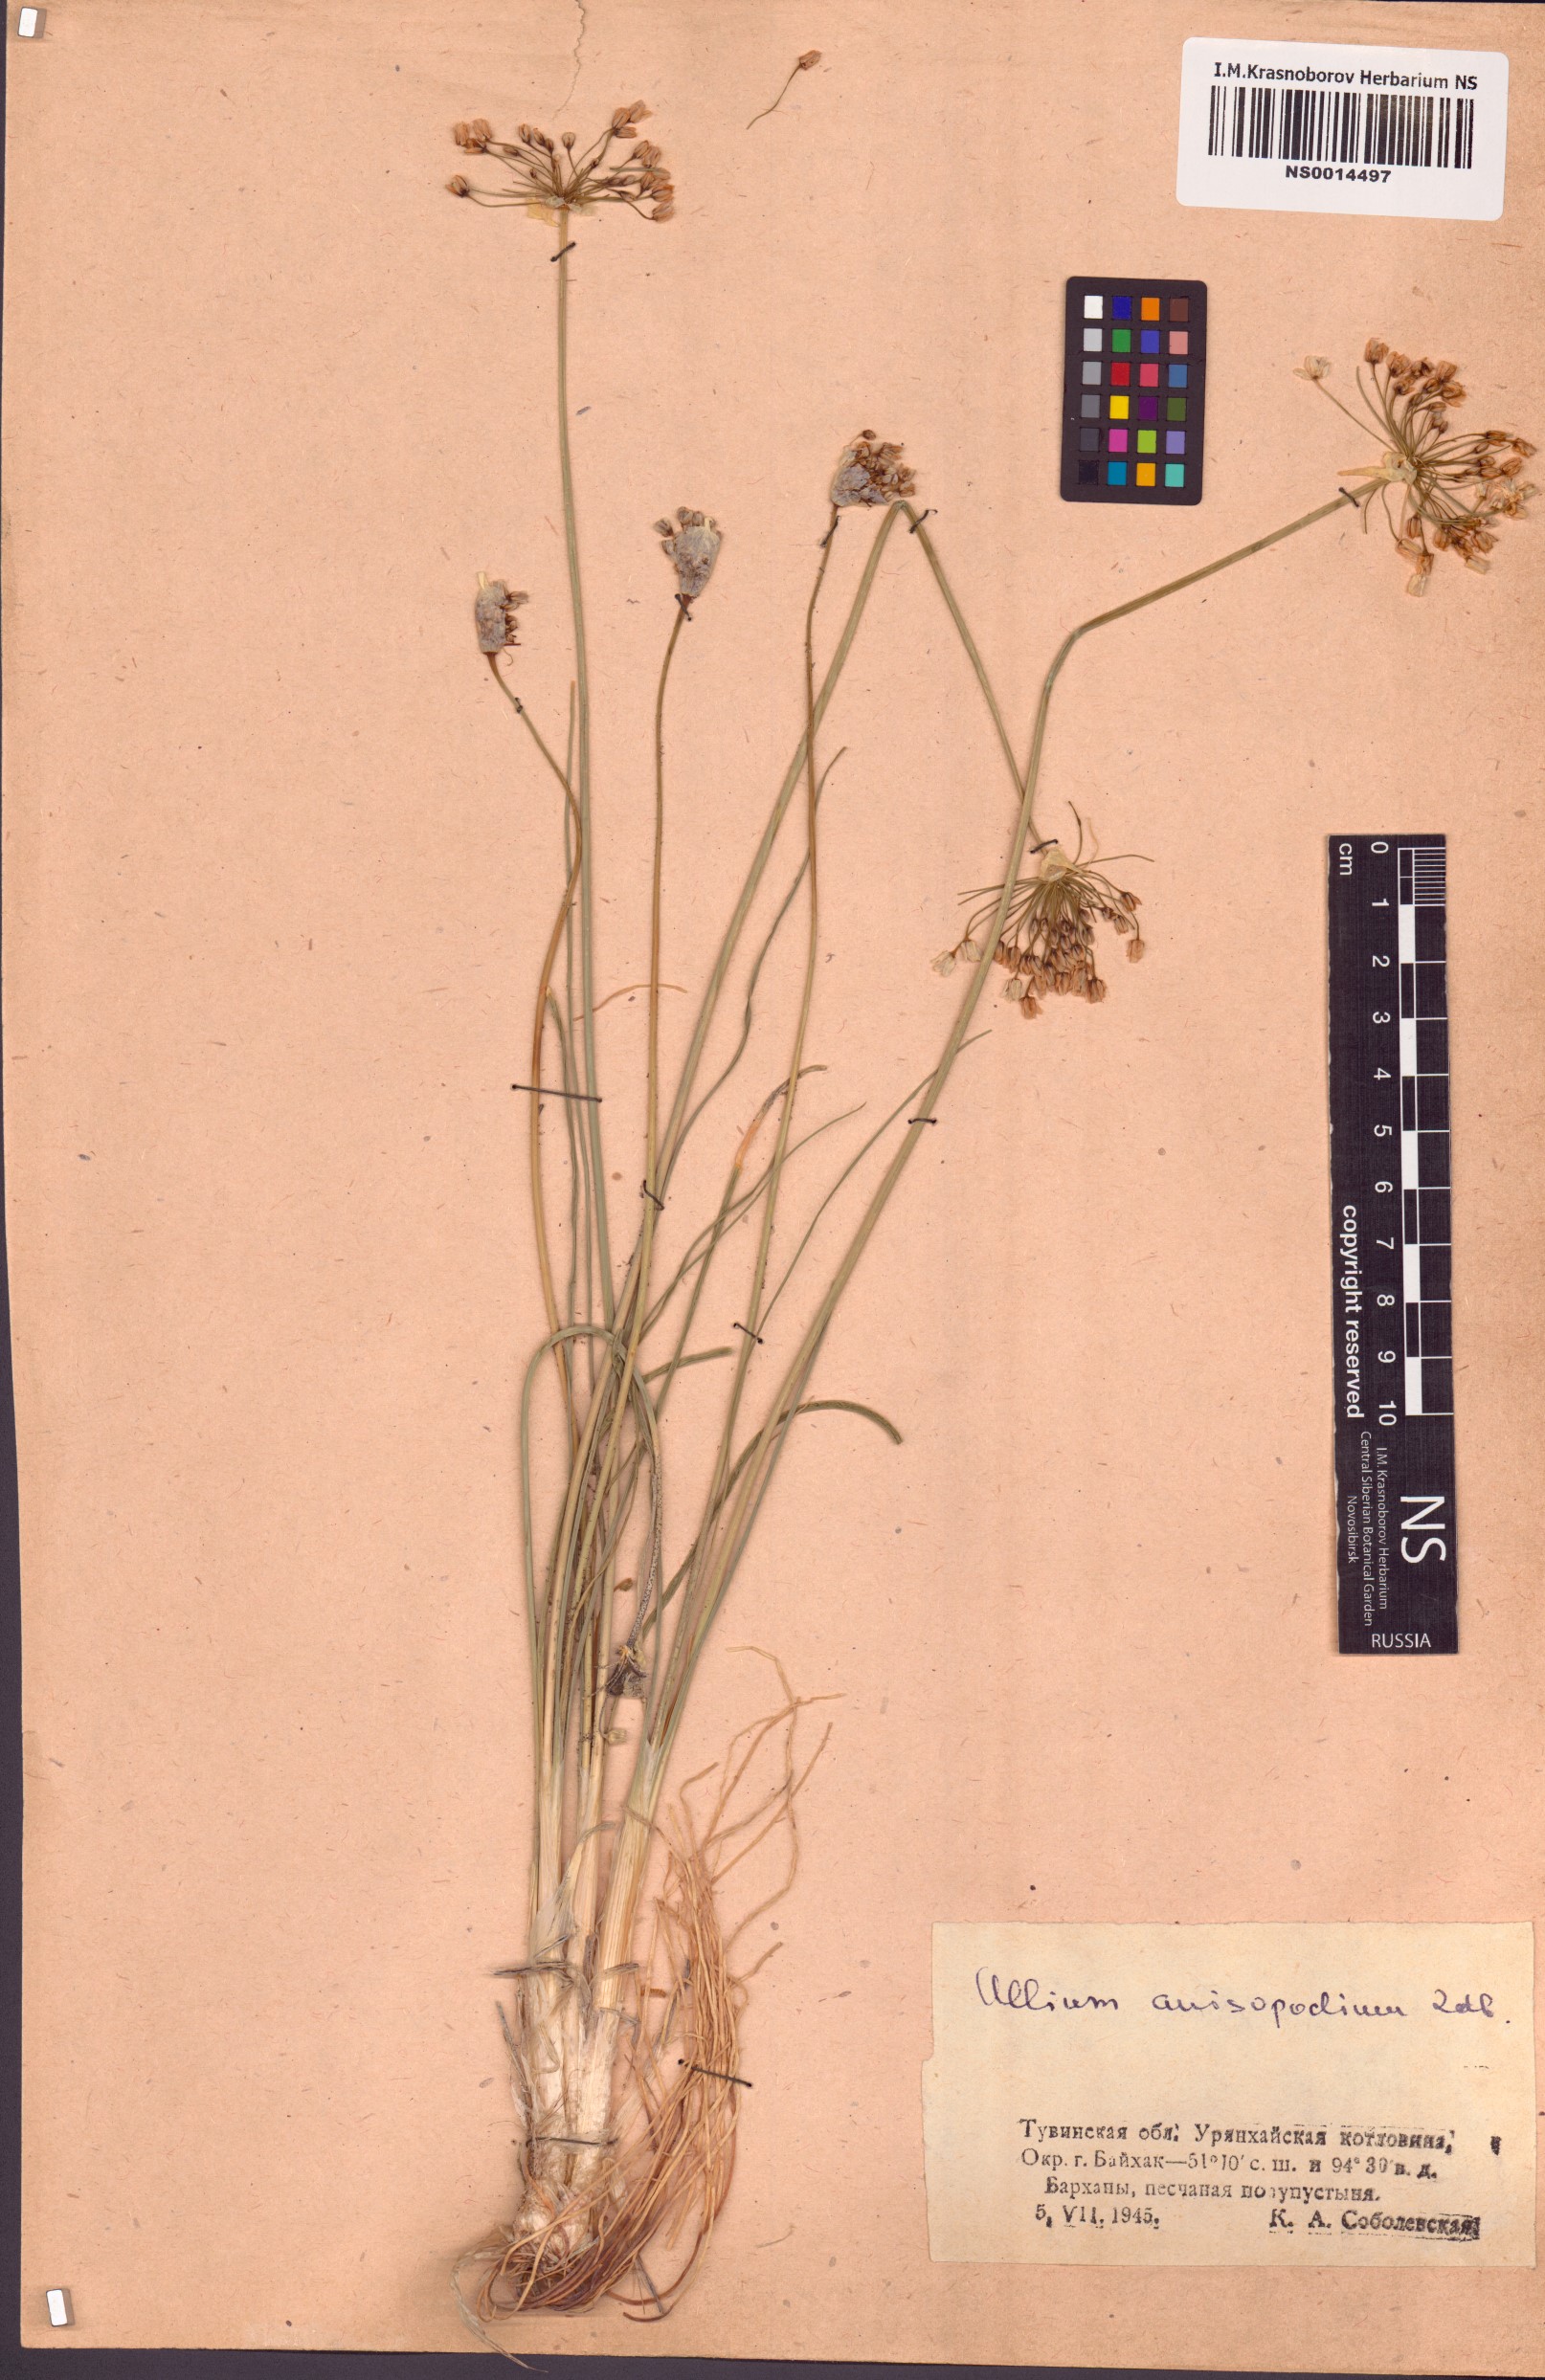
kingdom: Plantae
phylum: Tracheophyta
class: Liliopsida
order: Asparagales
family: Amaryllidaceae
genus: Allium
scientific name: Allium anisopodium
